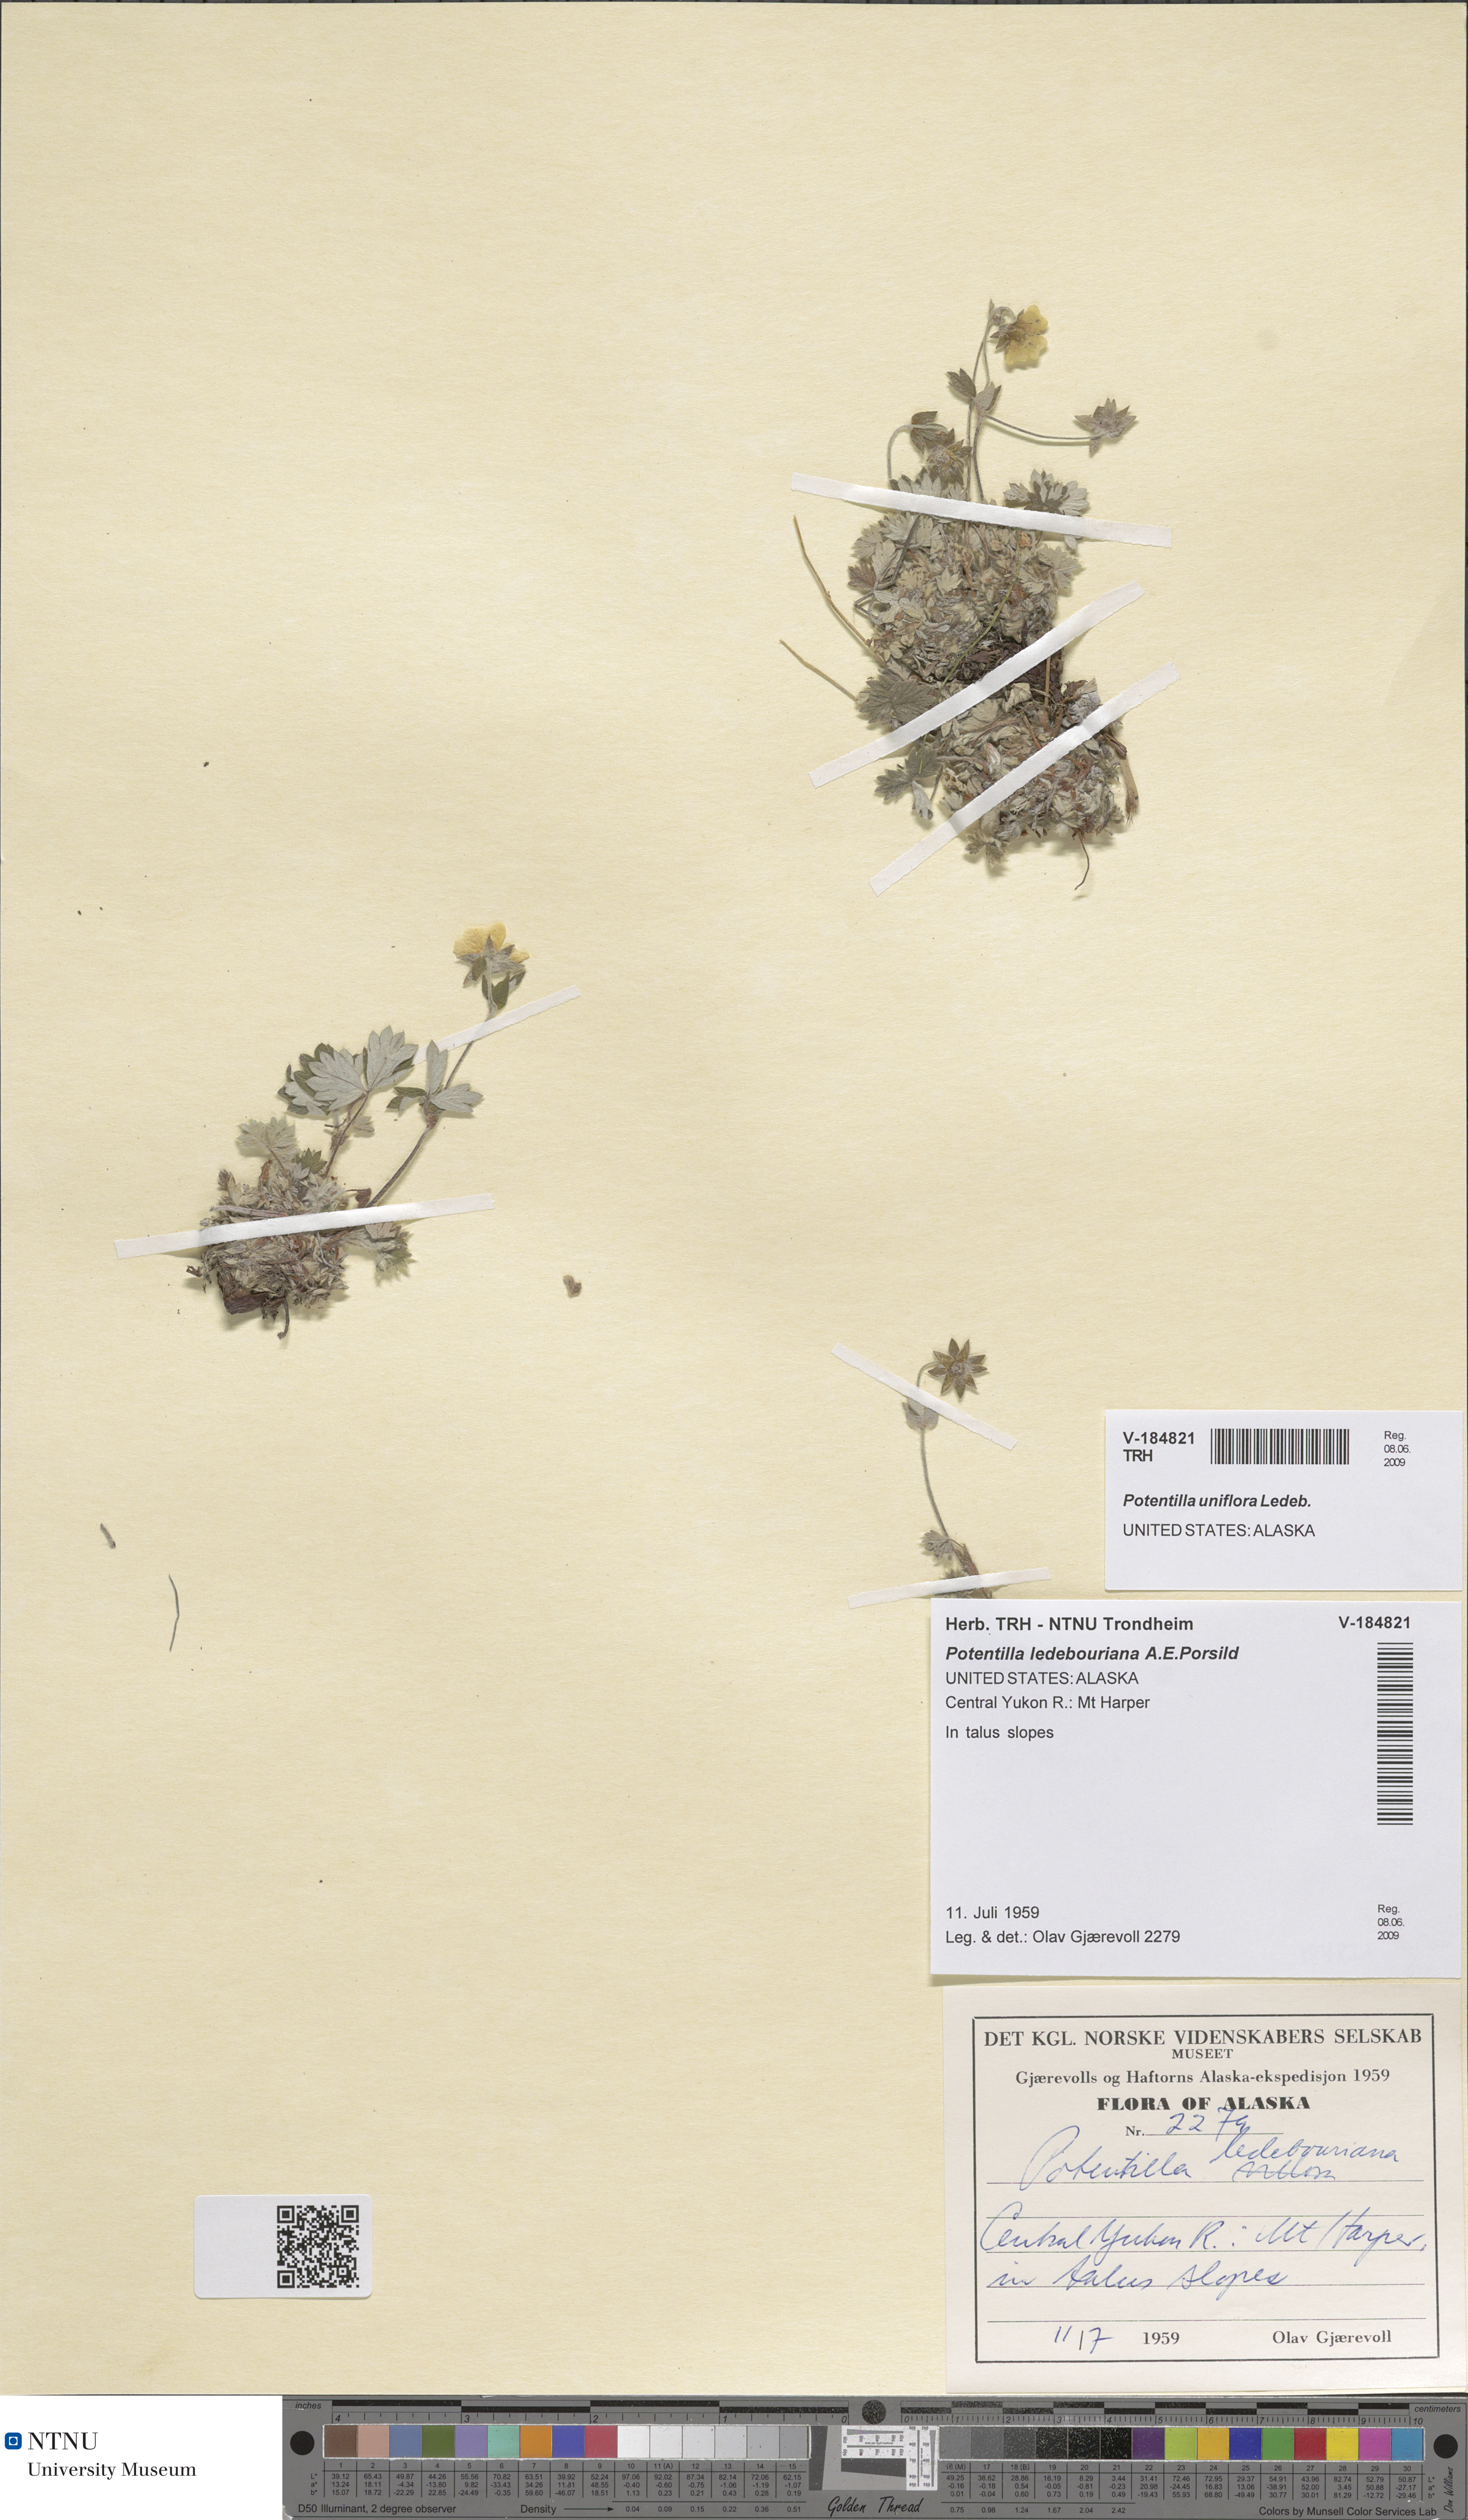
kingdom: Plantae
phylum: Tracheophyta
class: Magnoliopsida
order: Rosales
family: Rosaceae
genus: Potentilla
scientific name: Potentilla uniflora
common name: One-flowered cinquefoil
